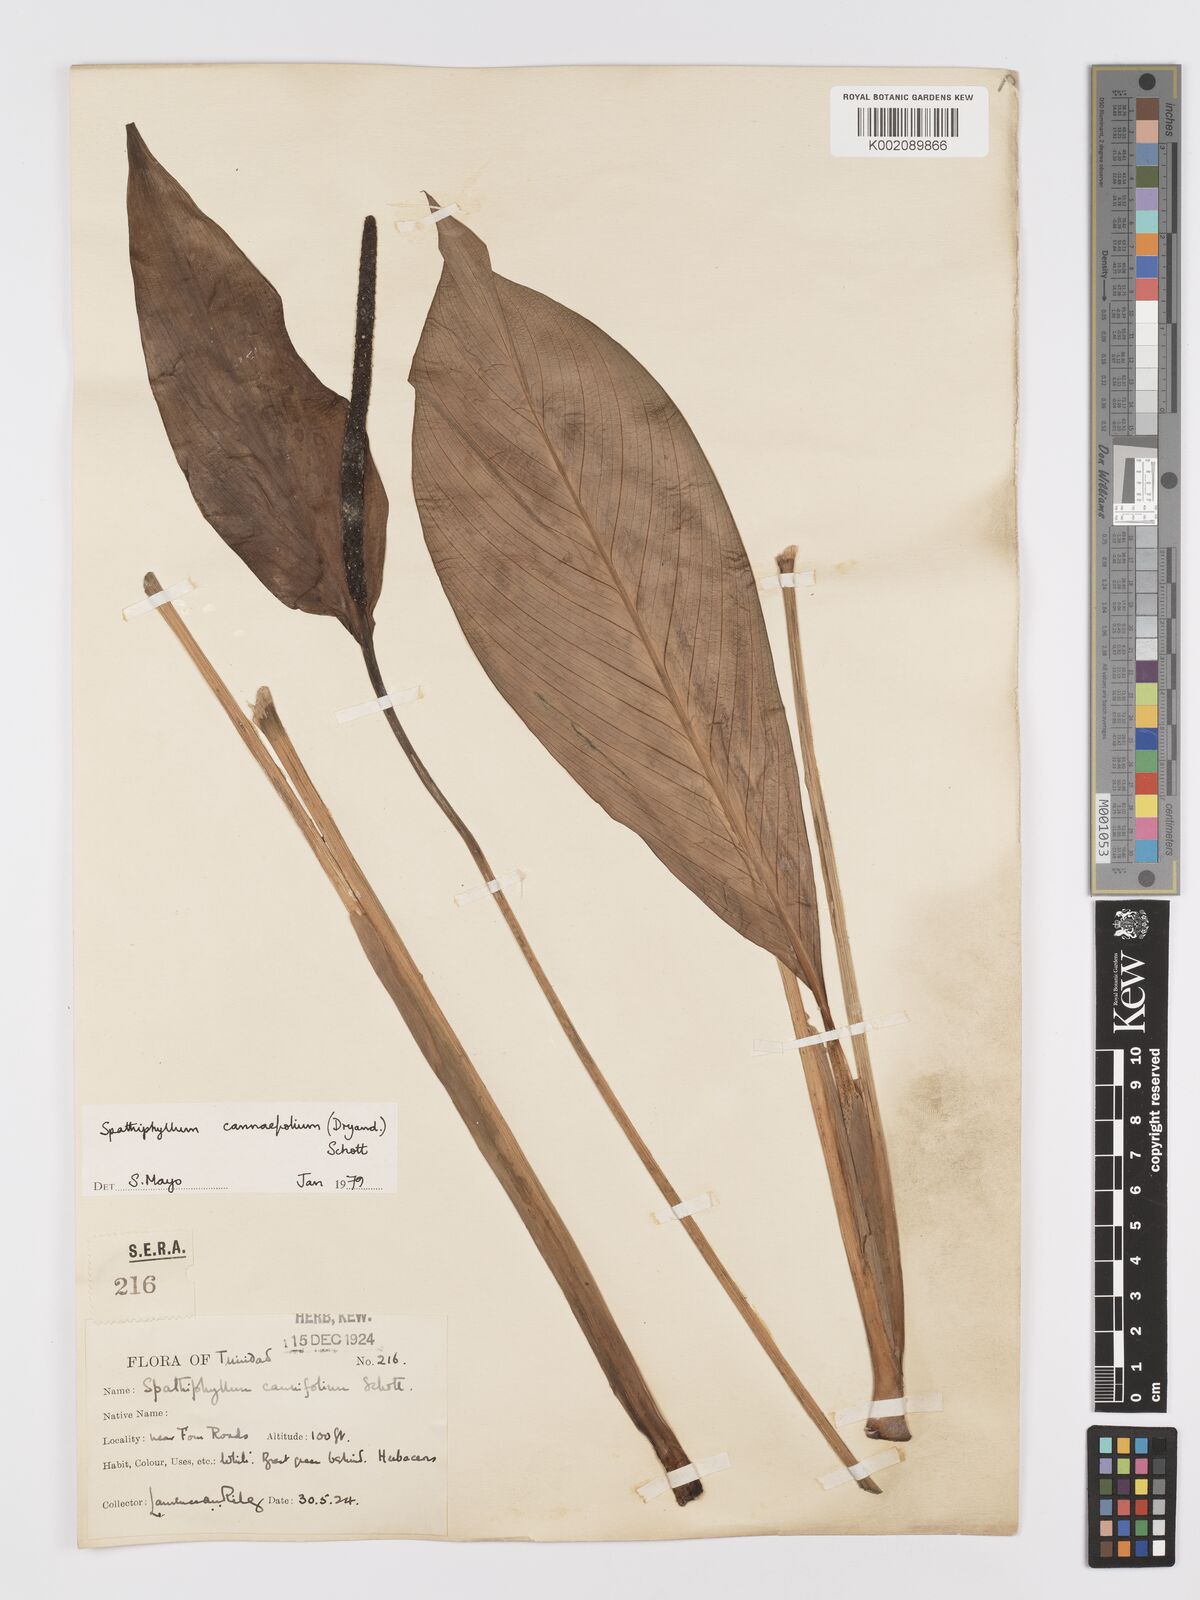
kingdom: Plantae
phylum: Tracheophyta
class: Liliopsida
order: Alismatales
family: Araceae
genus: Spathiphyllum
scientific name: Spathiphyllum cannifolium
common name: Spatheflower
